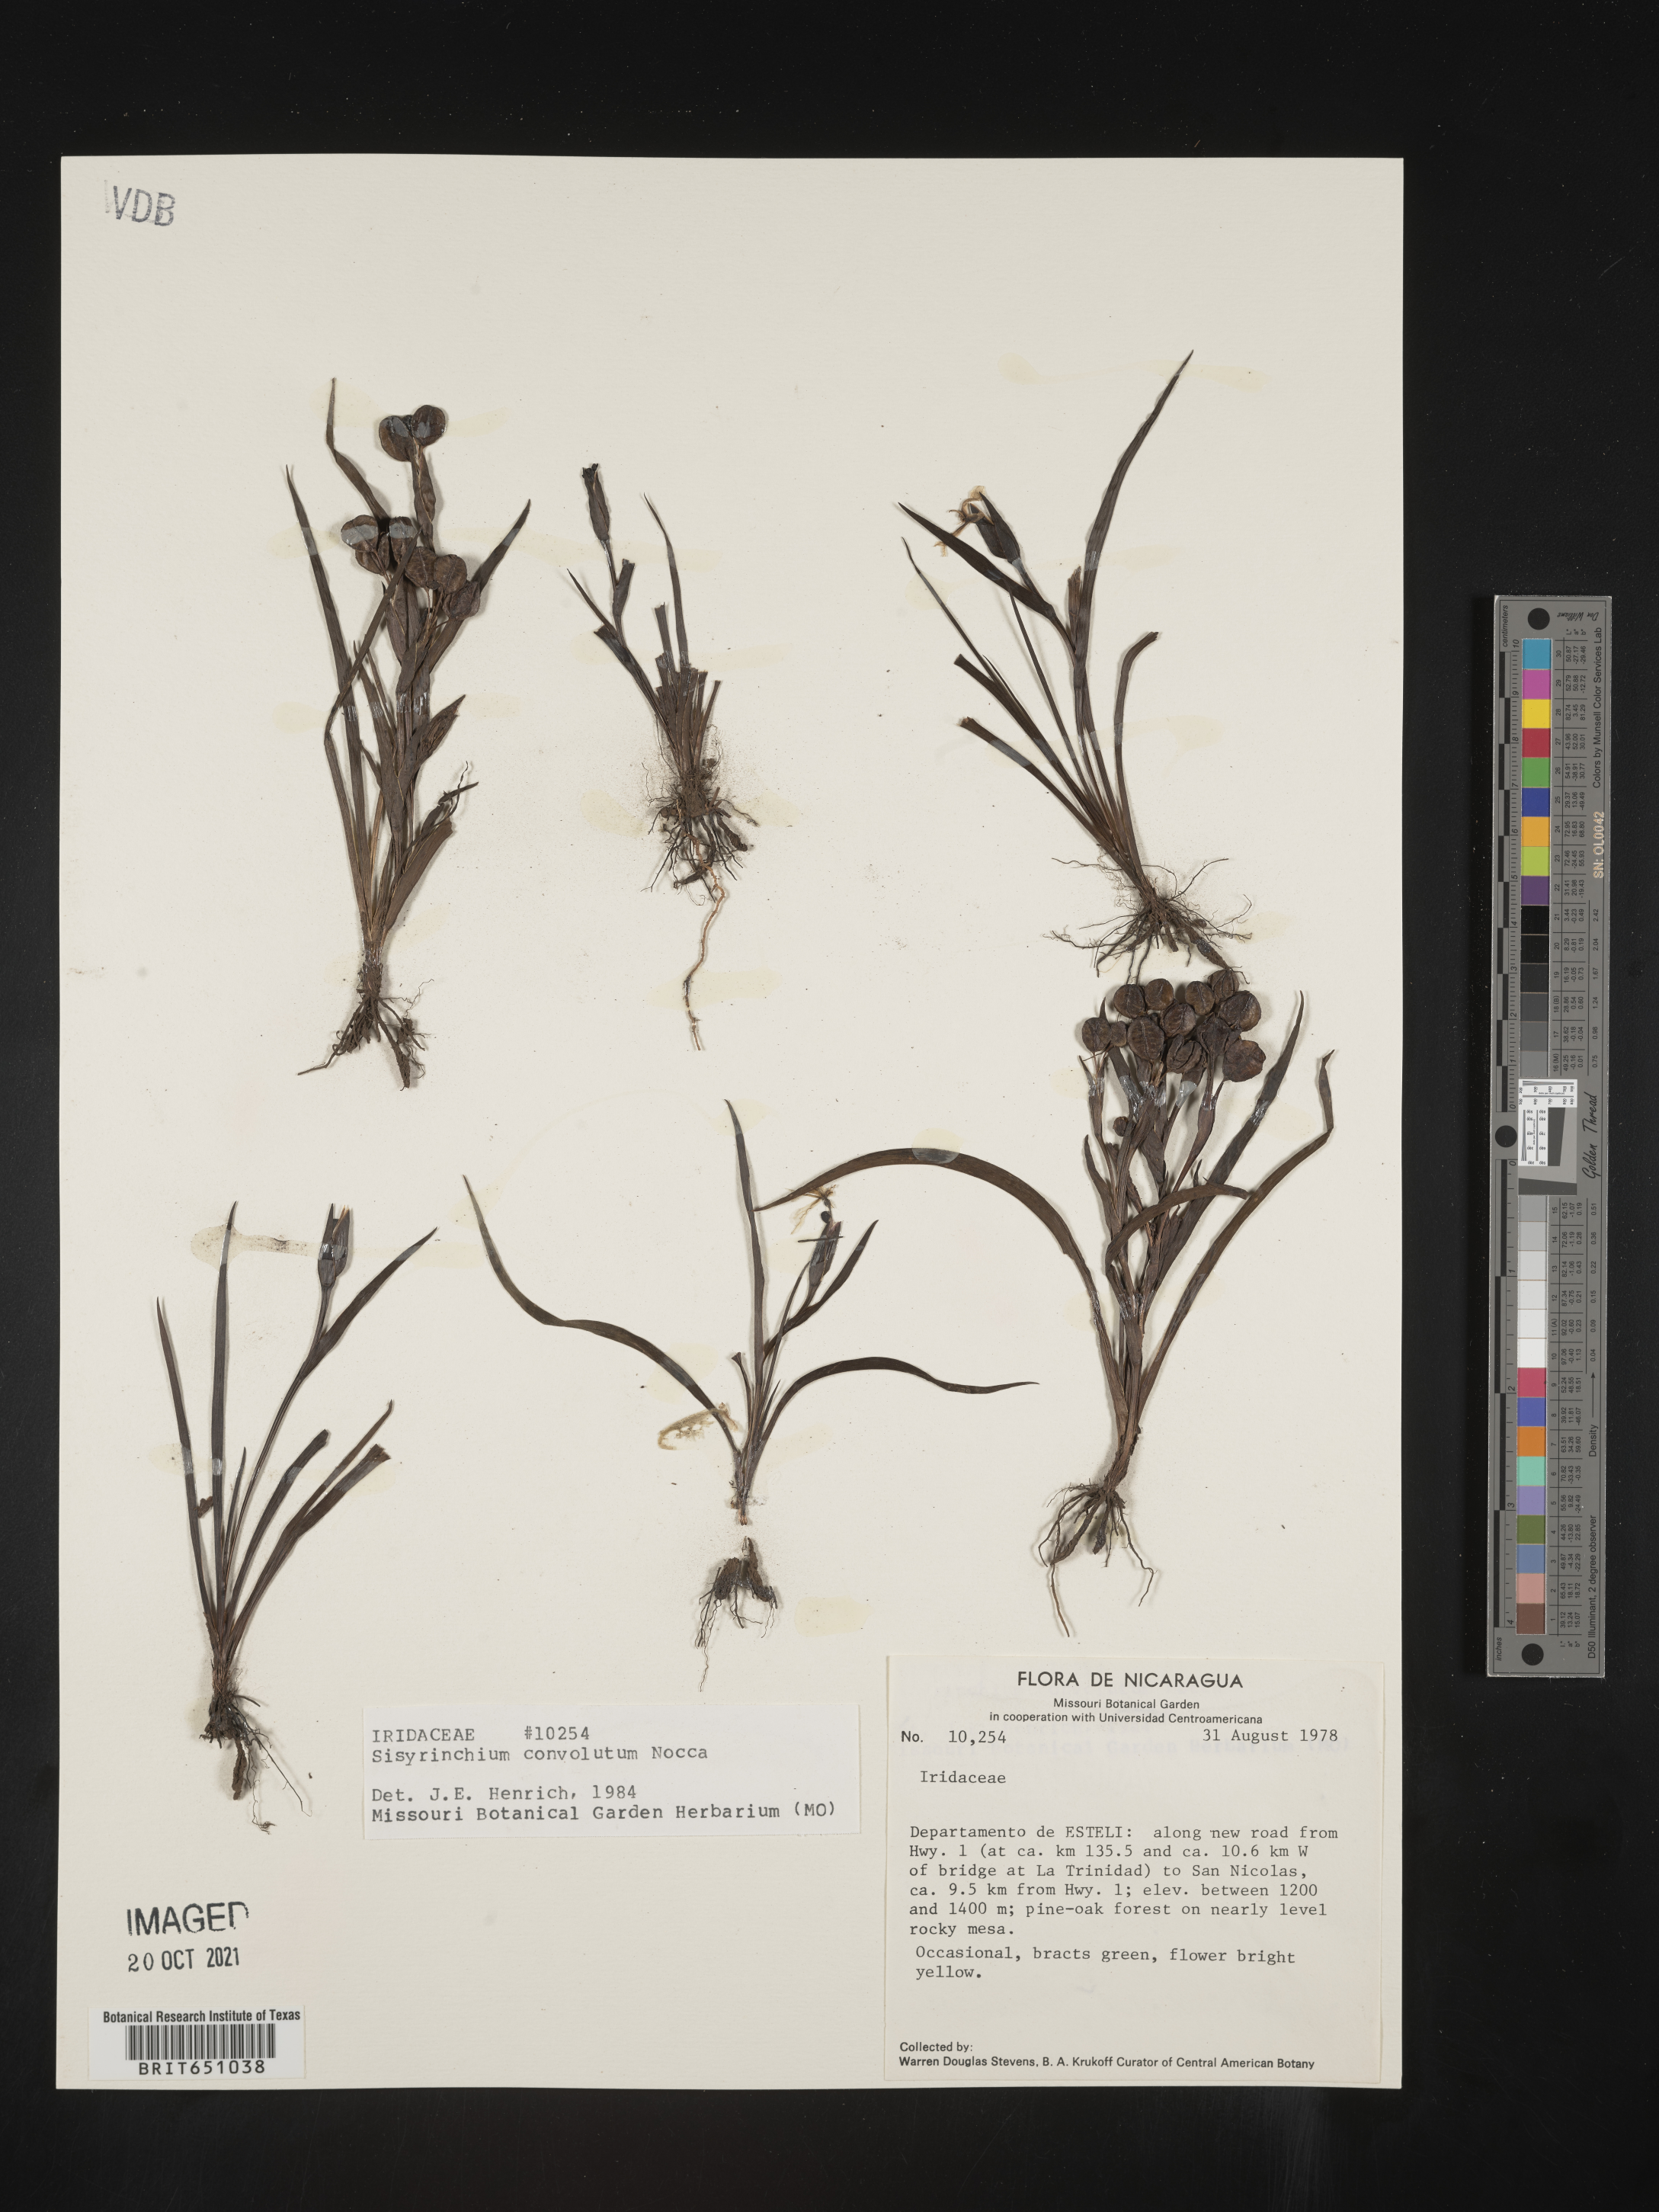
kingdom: Plantae
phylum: Tracheophyta
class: Liliopsida
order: Asparagales
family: Iridaceae
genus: Sisyrinchium
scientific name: Sisyrinchium
